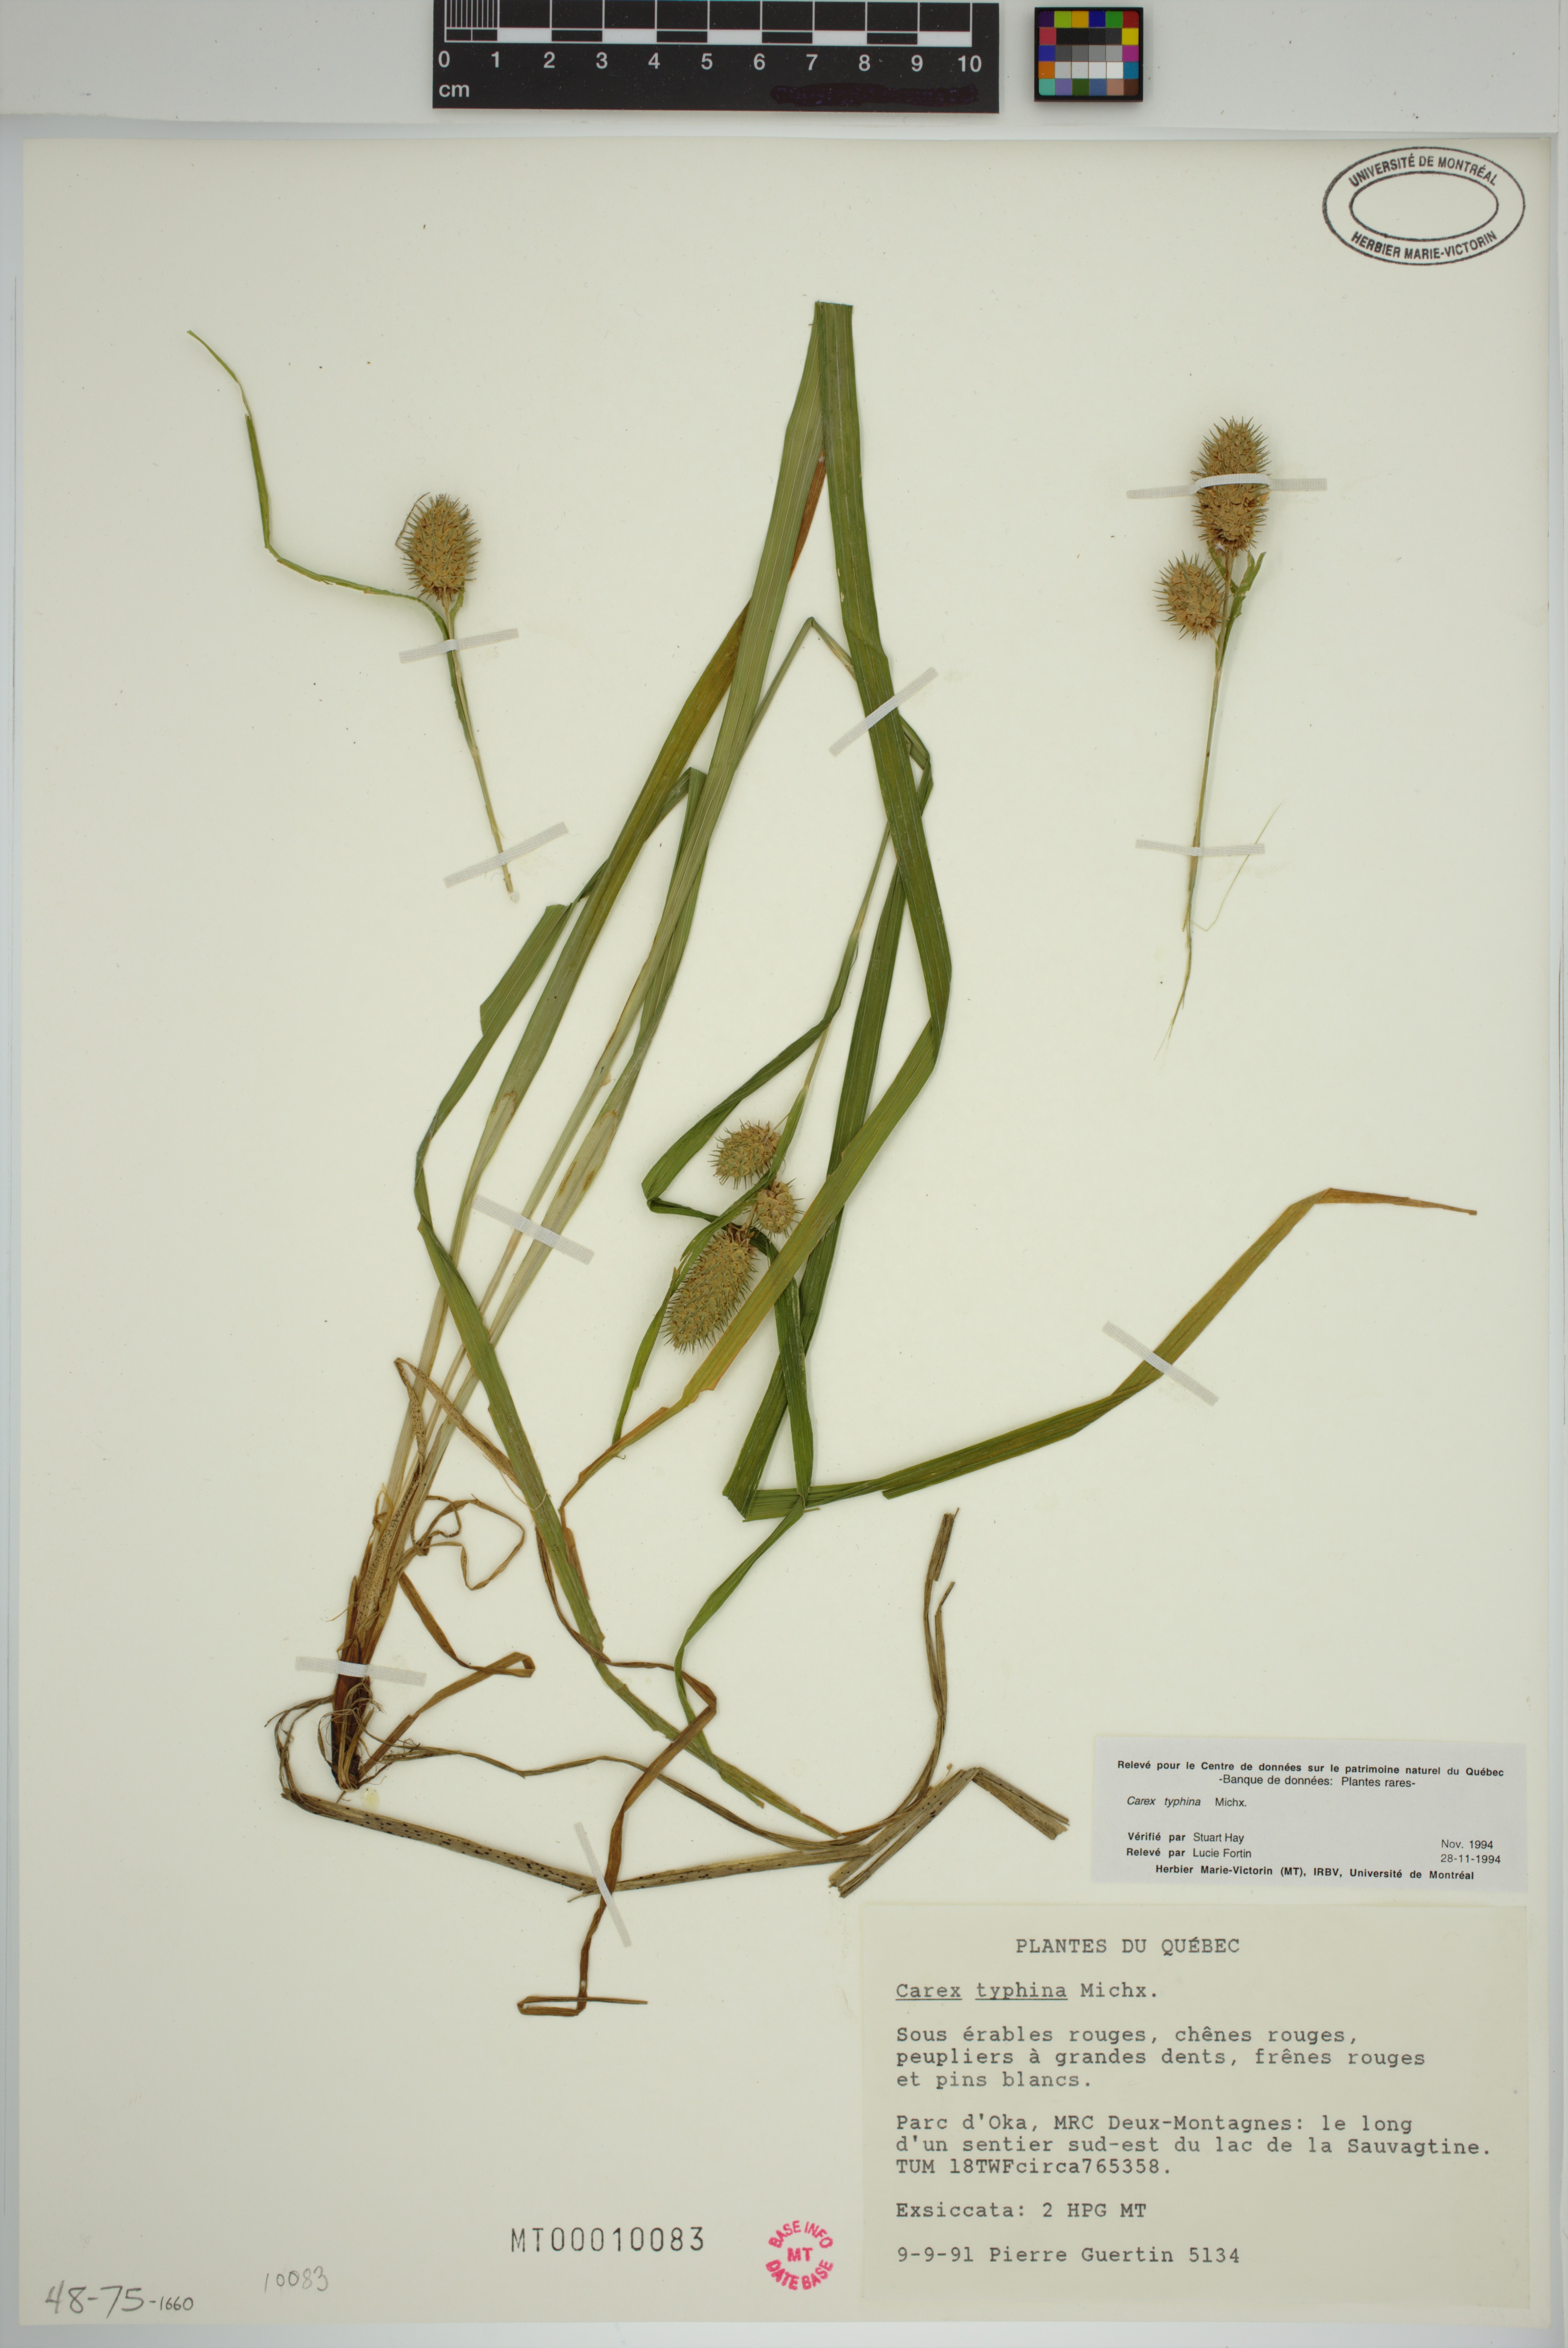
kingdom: Plantae
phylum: Tracheophyta
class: Liliopsida
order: Poales
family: Cyperaceae
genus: Carex
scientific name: Carex typhina
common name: Cattail sedge
